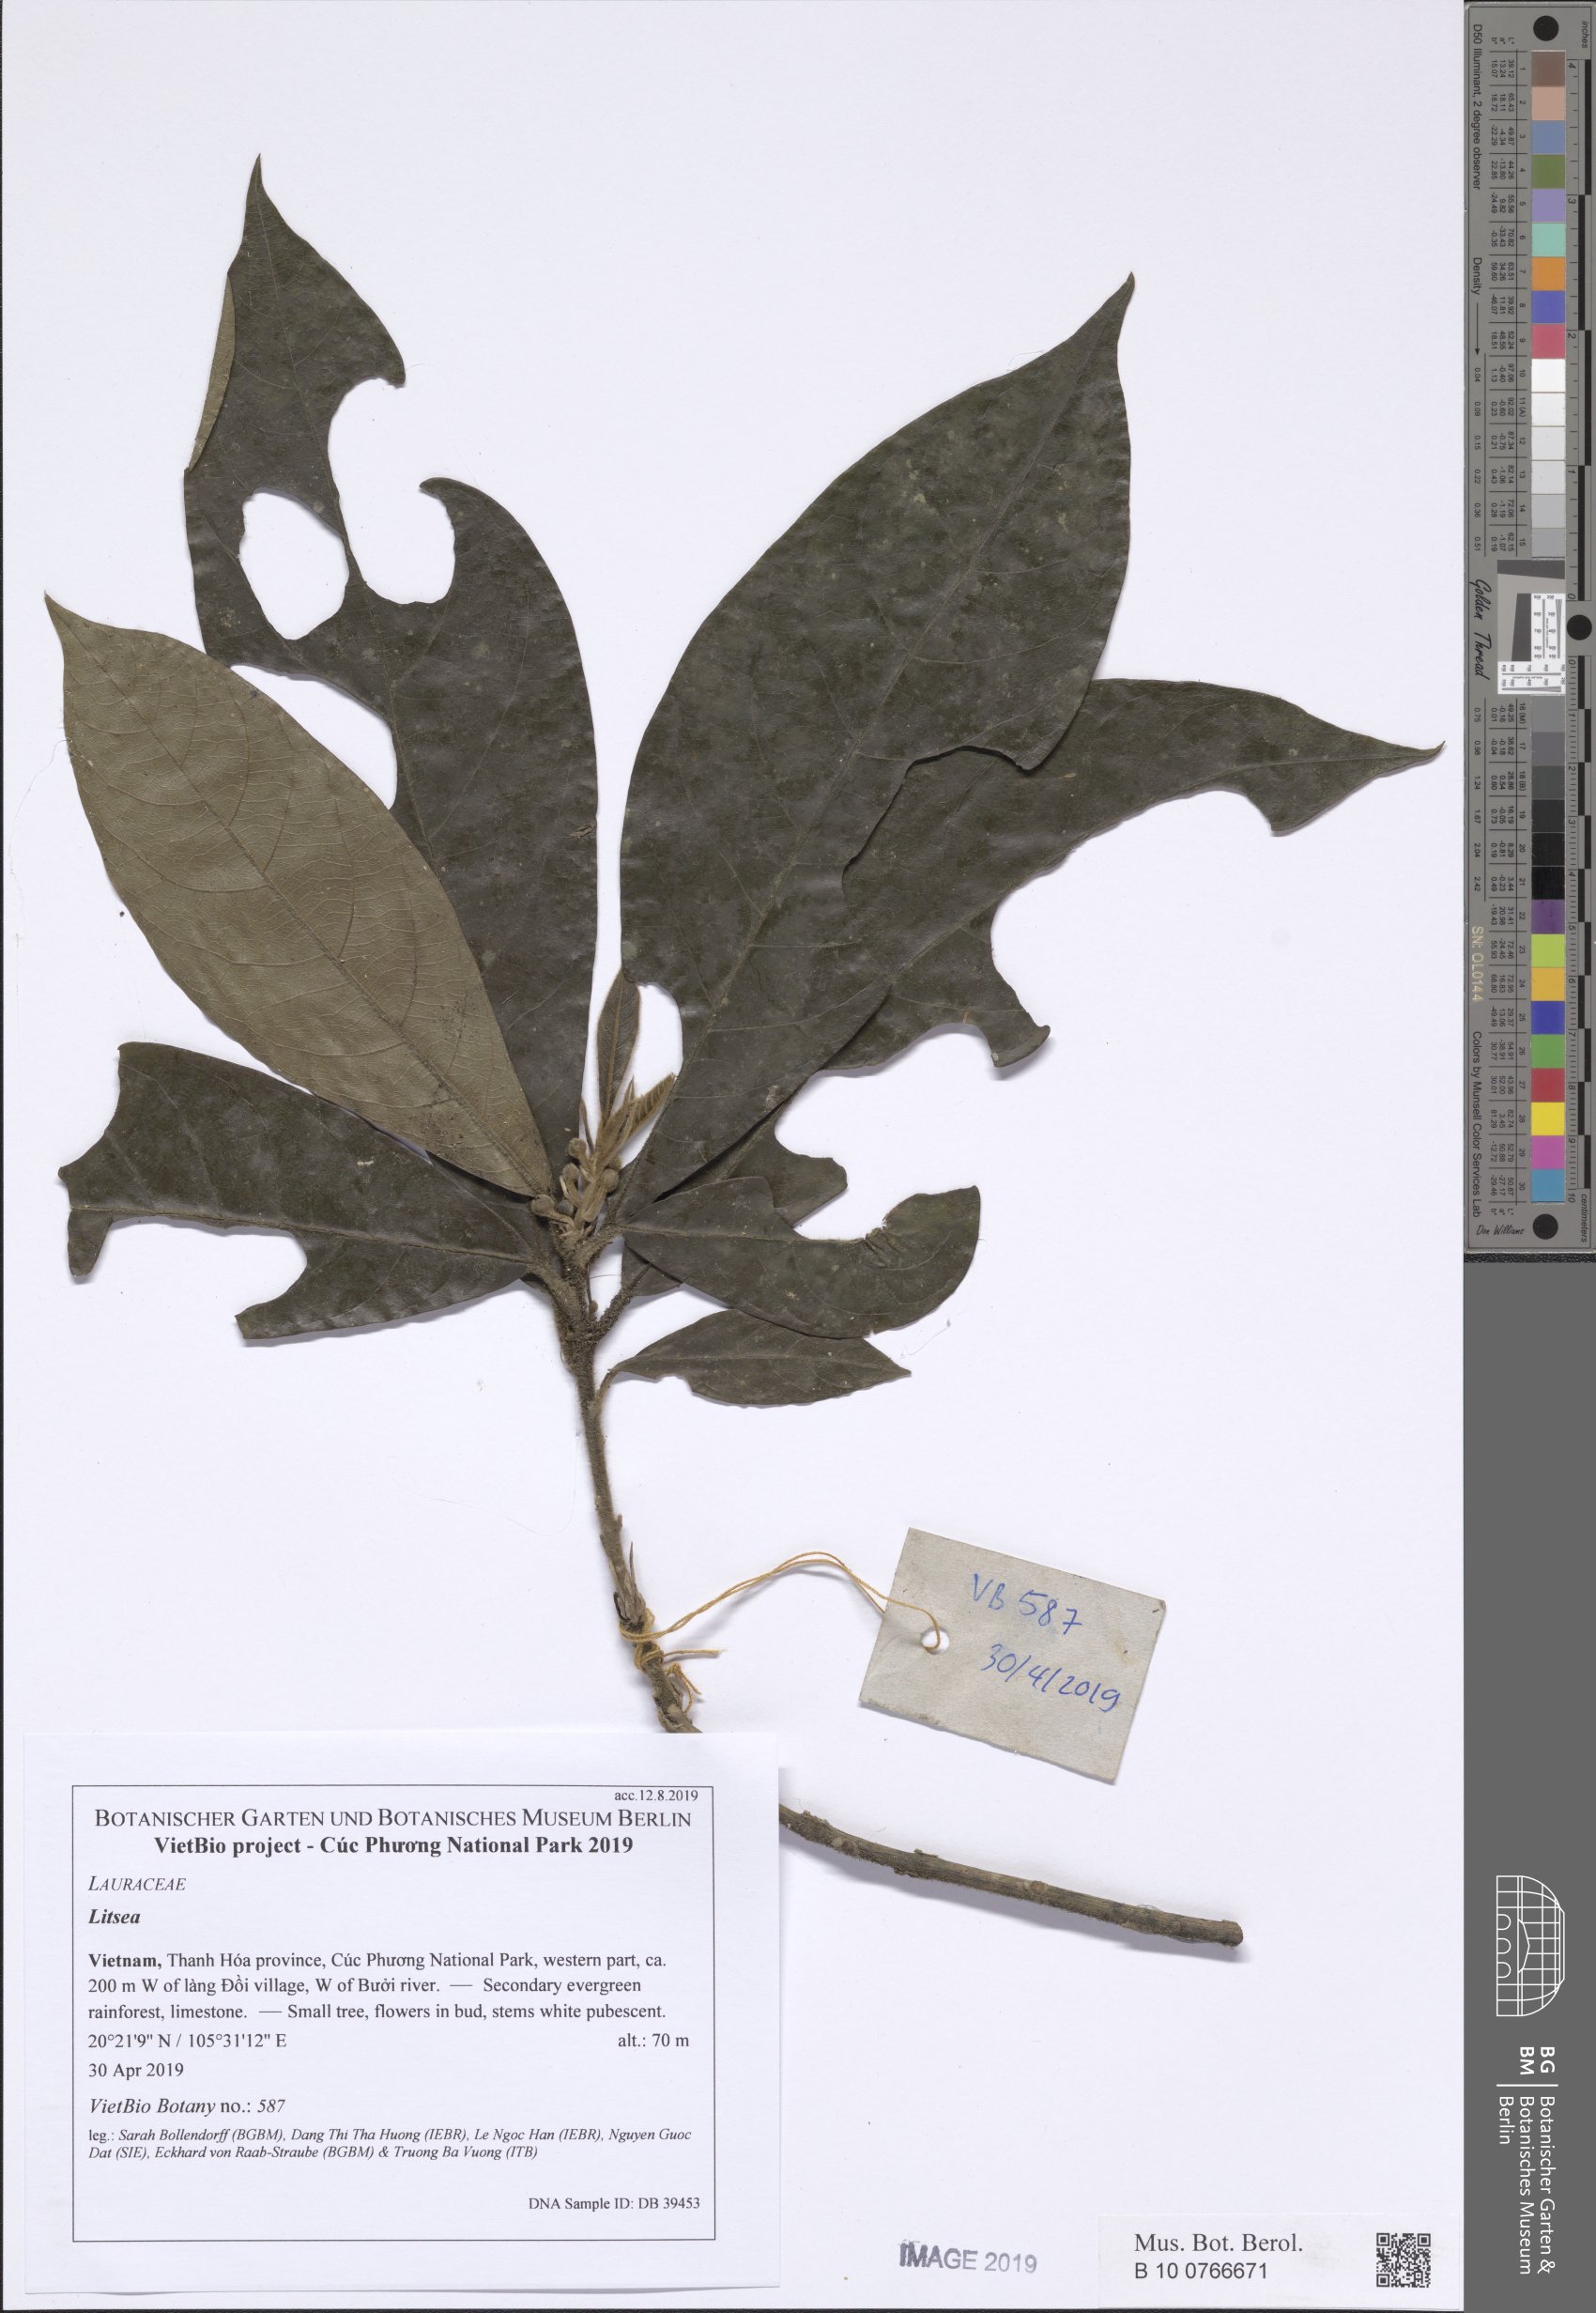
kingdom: Plantae
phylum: Tracheophyta
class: Magnoliopsida
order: Laurales
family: Lauraceae
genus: Litsea
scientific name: Litsea acutivena
